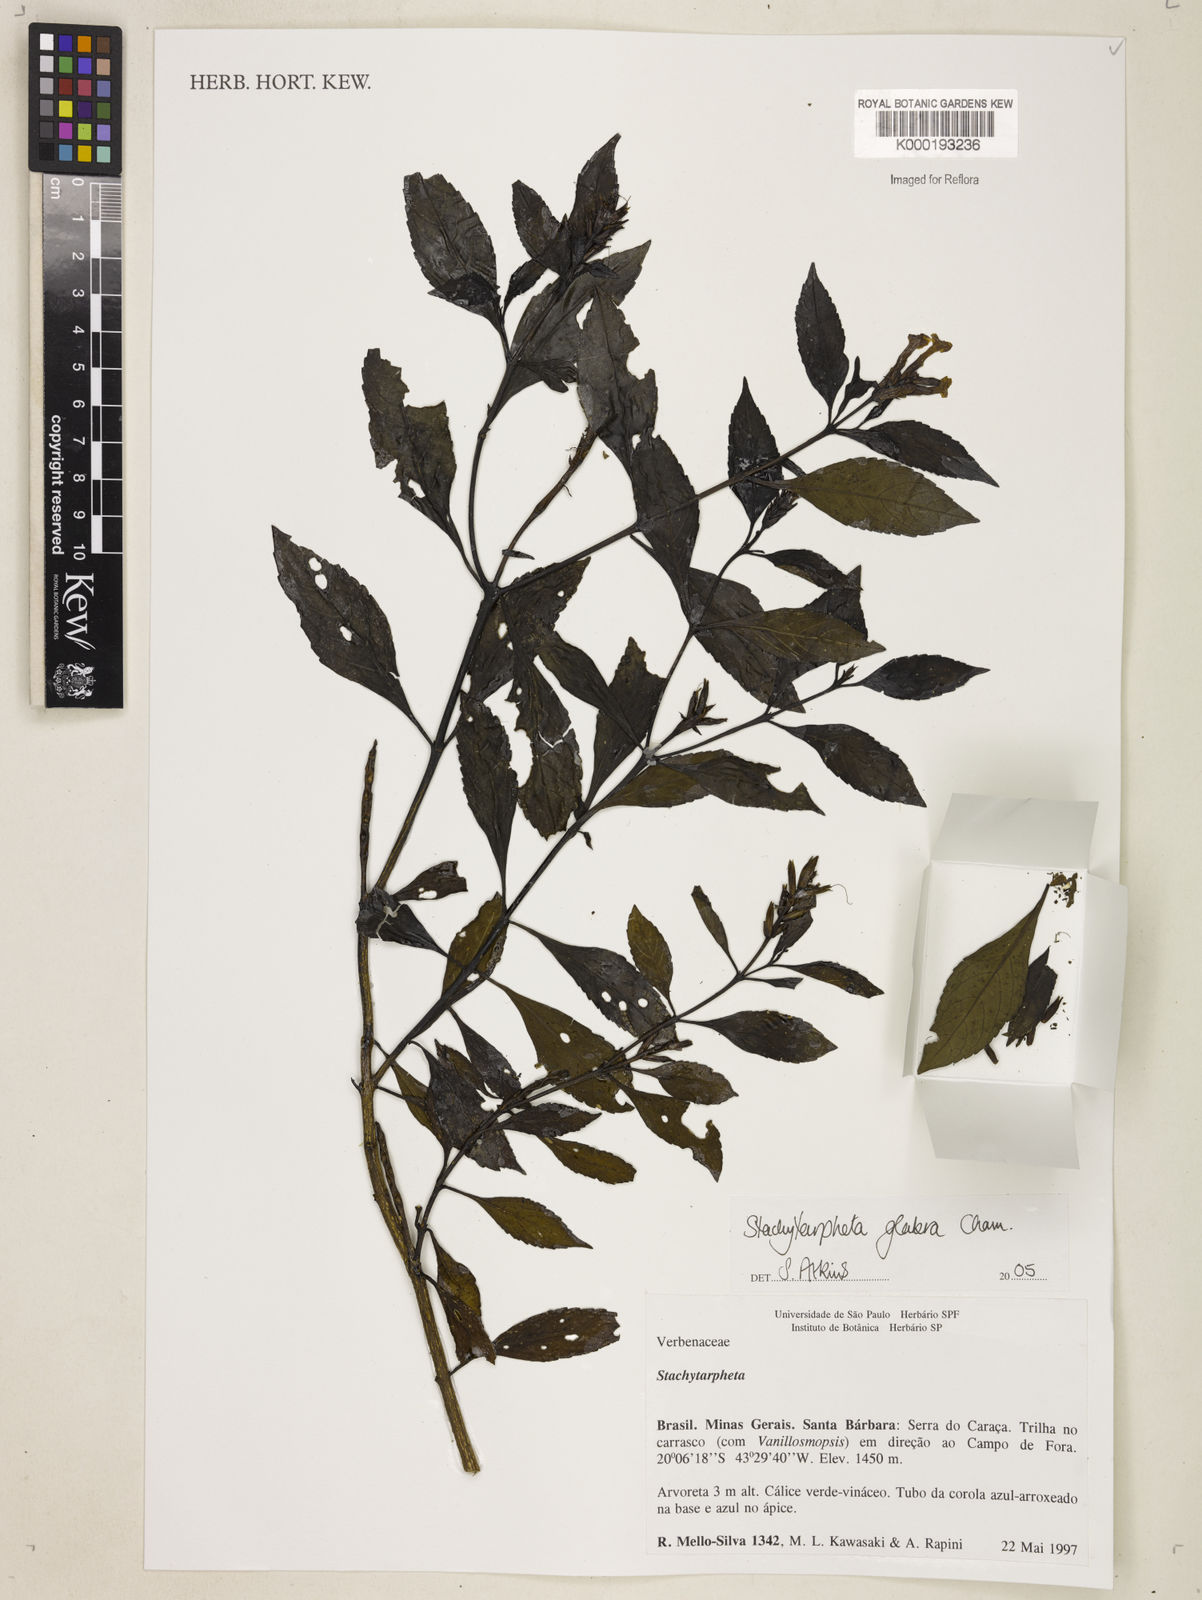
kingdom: Plantae
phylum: Tracheophyta
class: Magnoliopsida
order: Lamiales
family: Verbenaceae
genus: Stachytarpheta
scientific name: Stachytarpheta glabra
